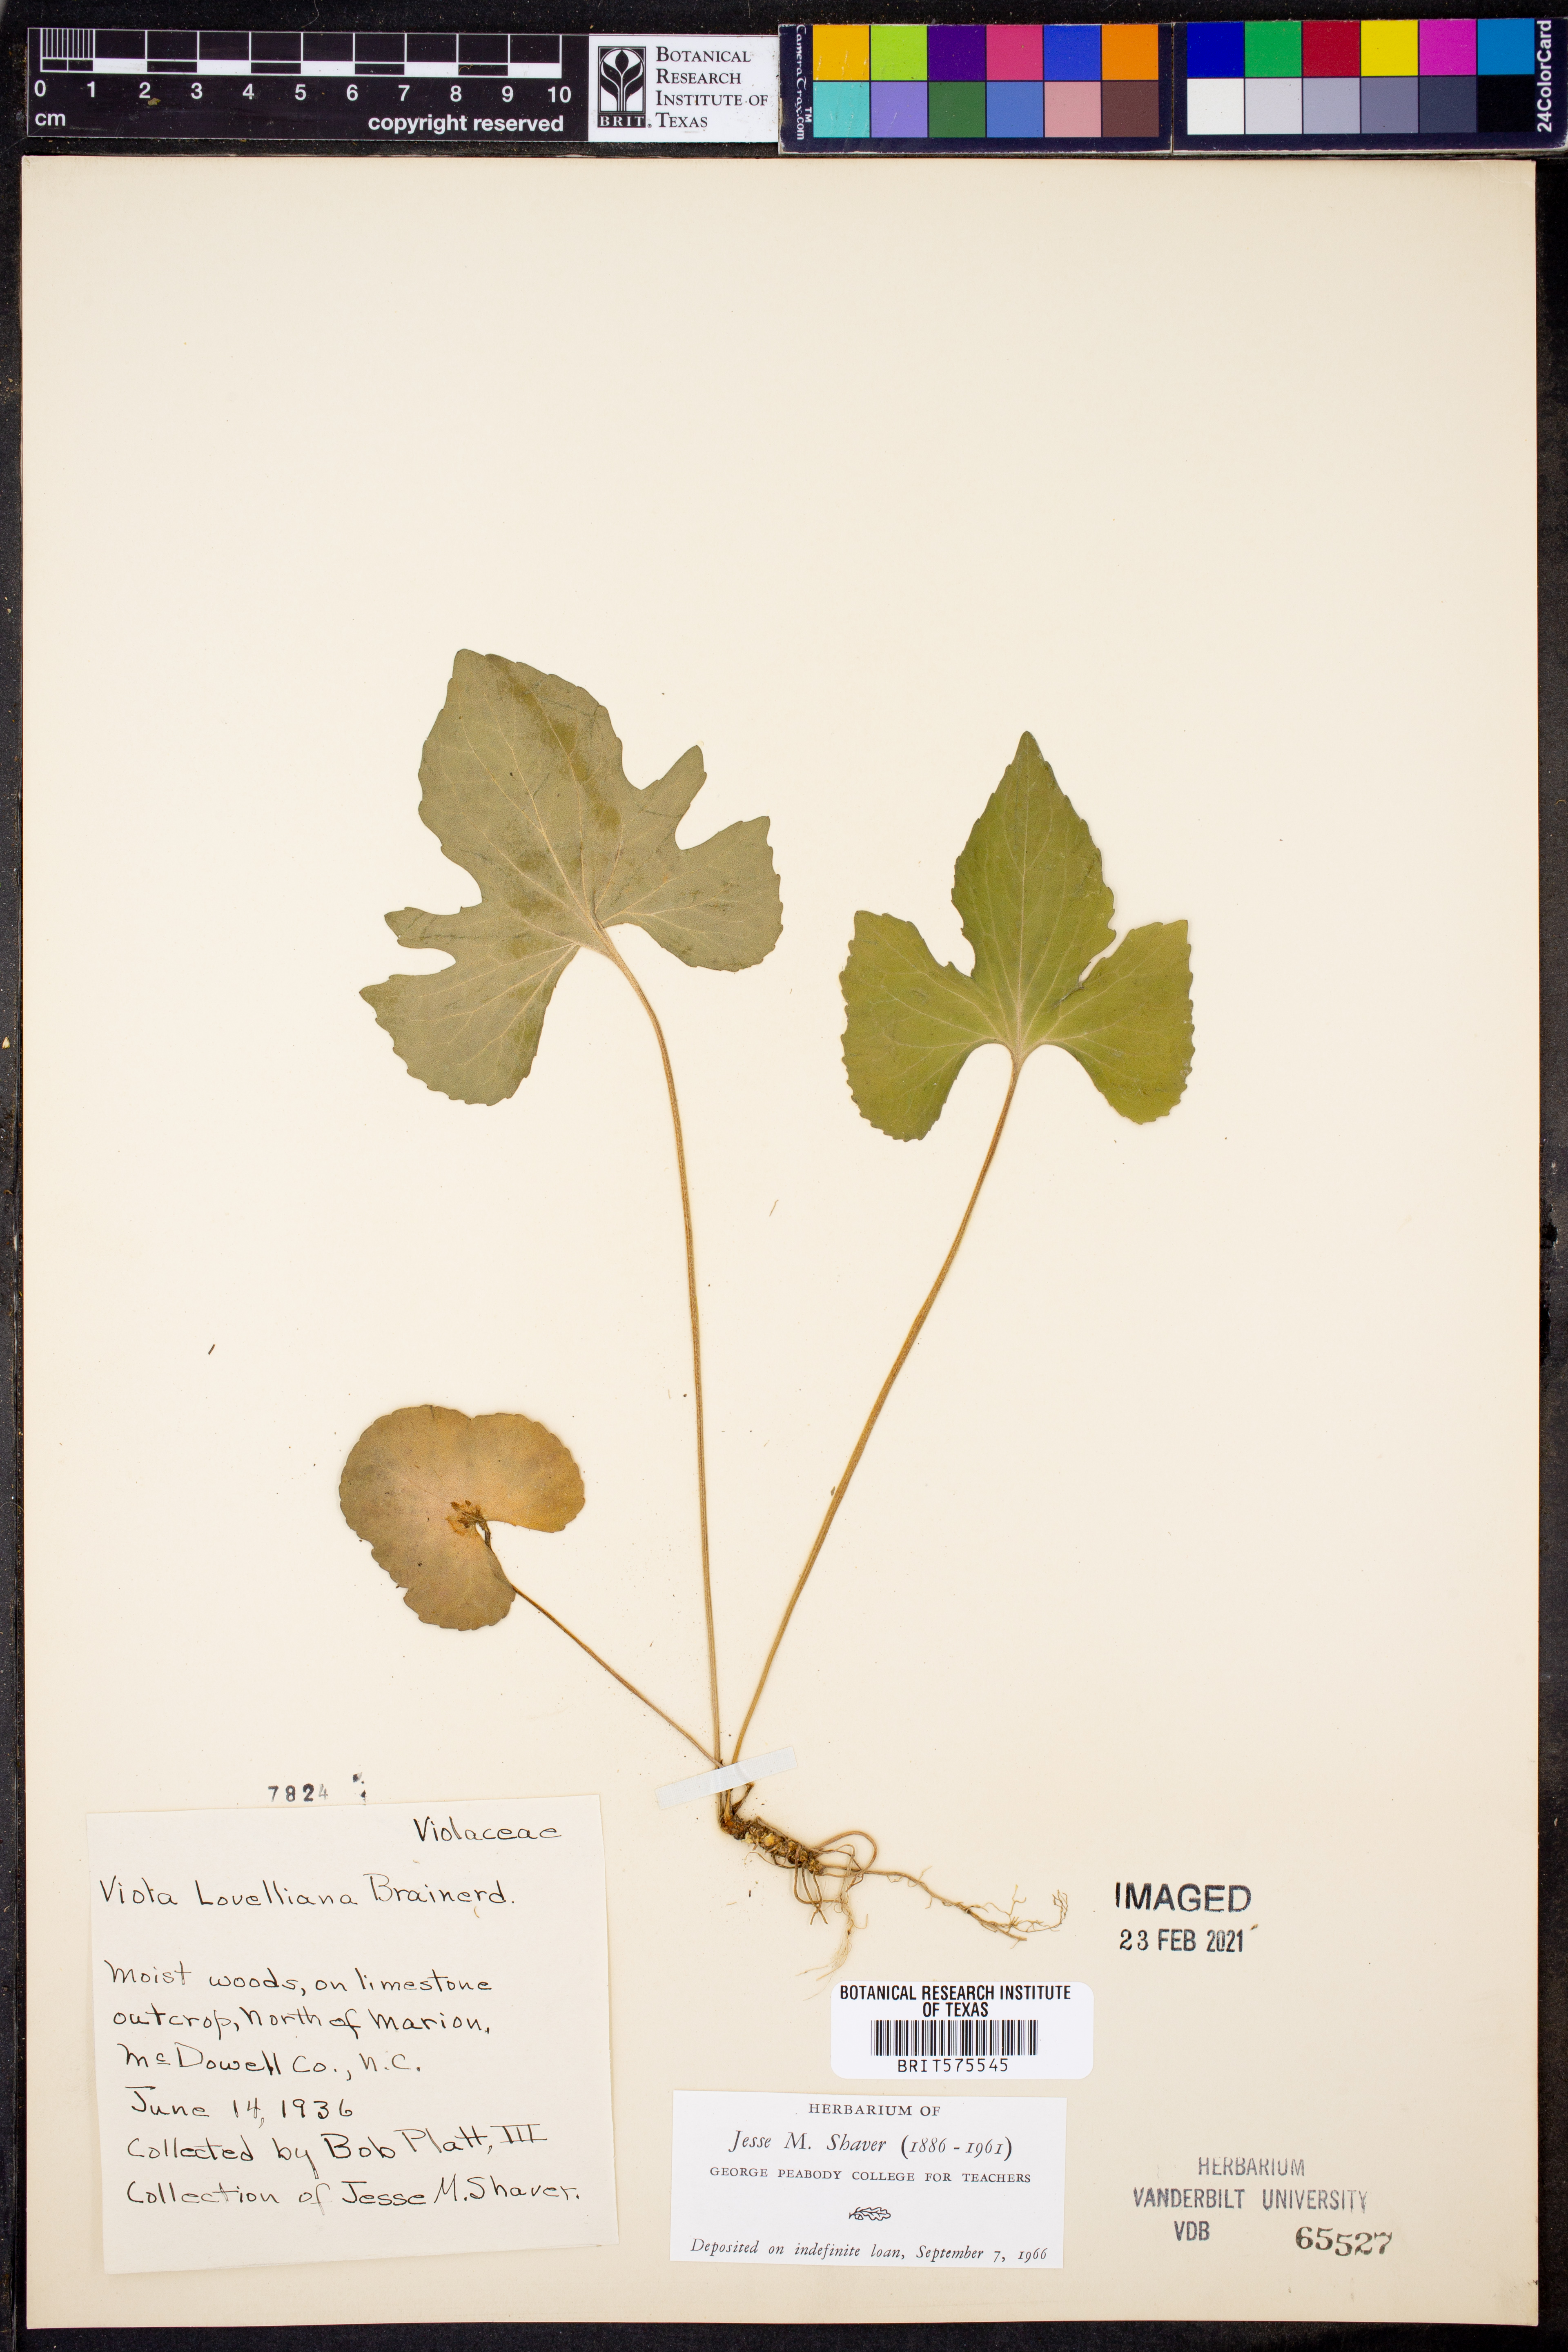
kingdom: Plantae
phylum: Tracheophyta
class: Magnoliopsida
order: Malpighiales
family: Violaceae
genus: Viola
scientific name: Viola lovelliana
